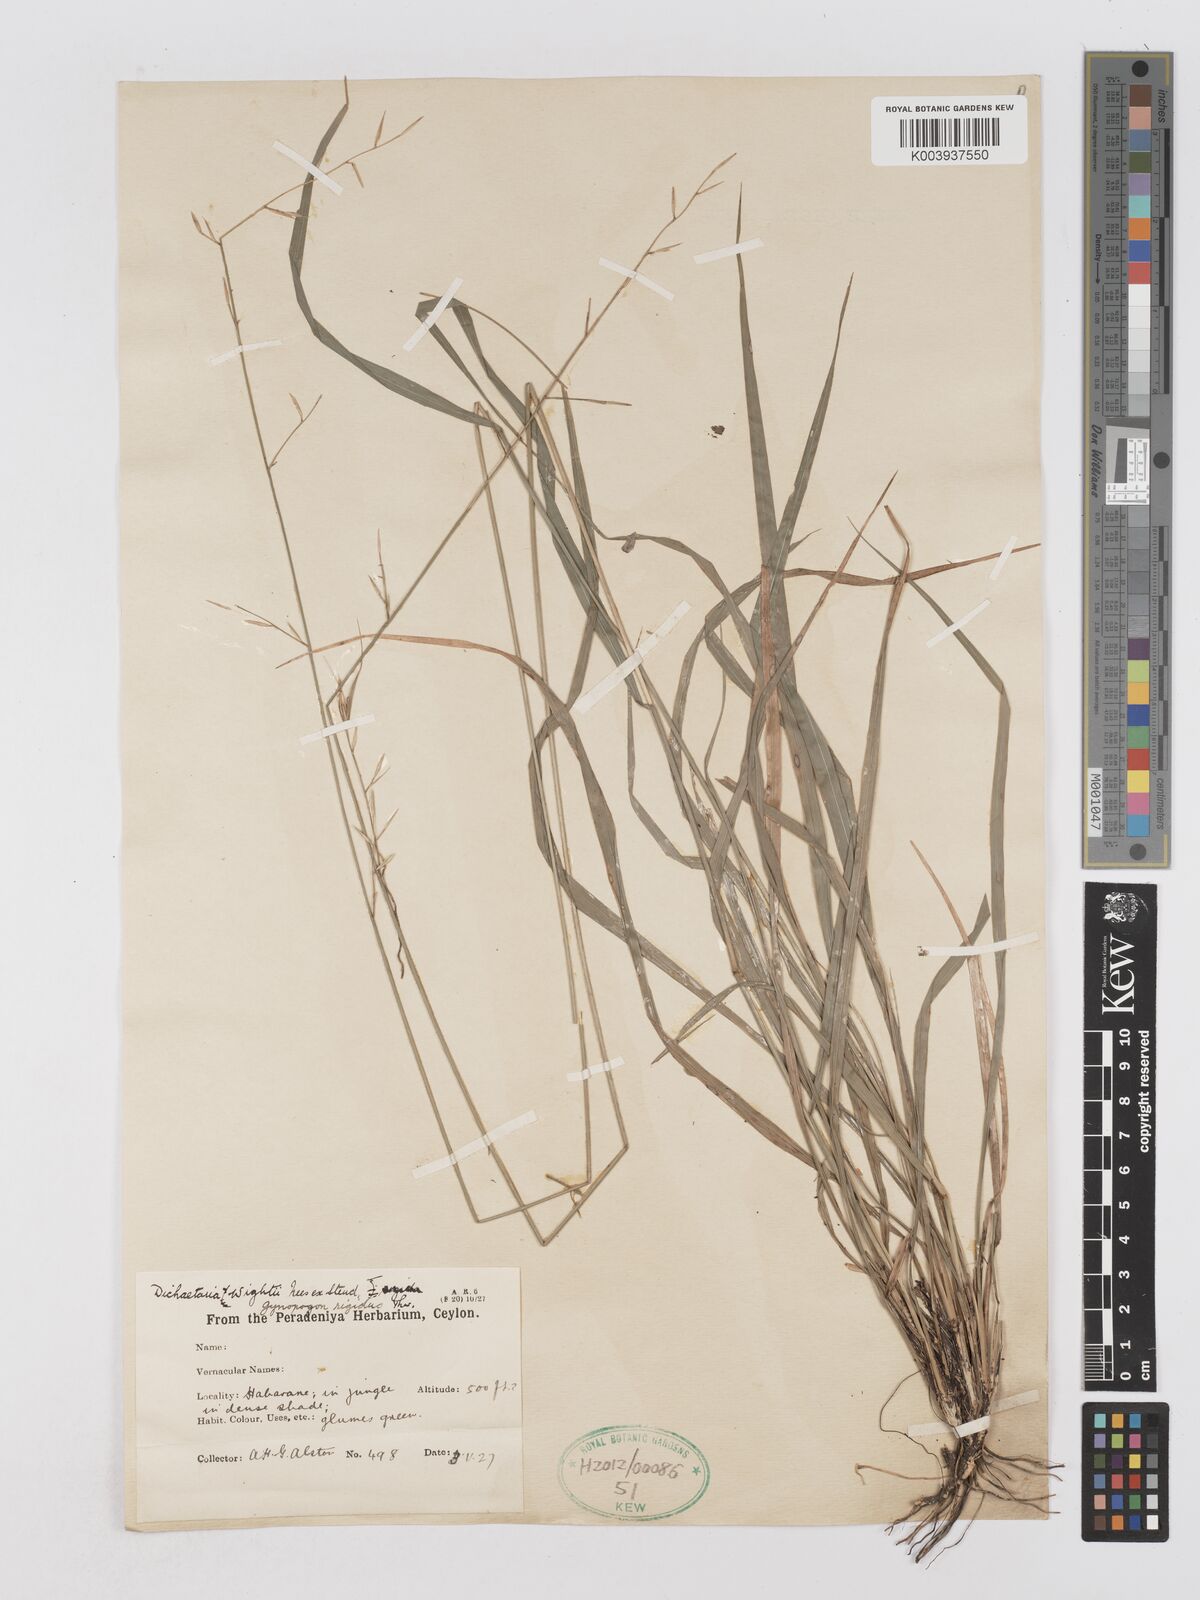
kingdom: Plantae
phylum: Tracheophyta
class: Liliopsida
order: Poales
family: Poaceae
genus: Dichaetaria
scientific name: Dichaetaria wightii
